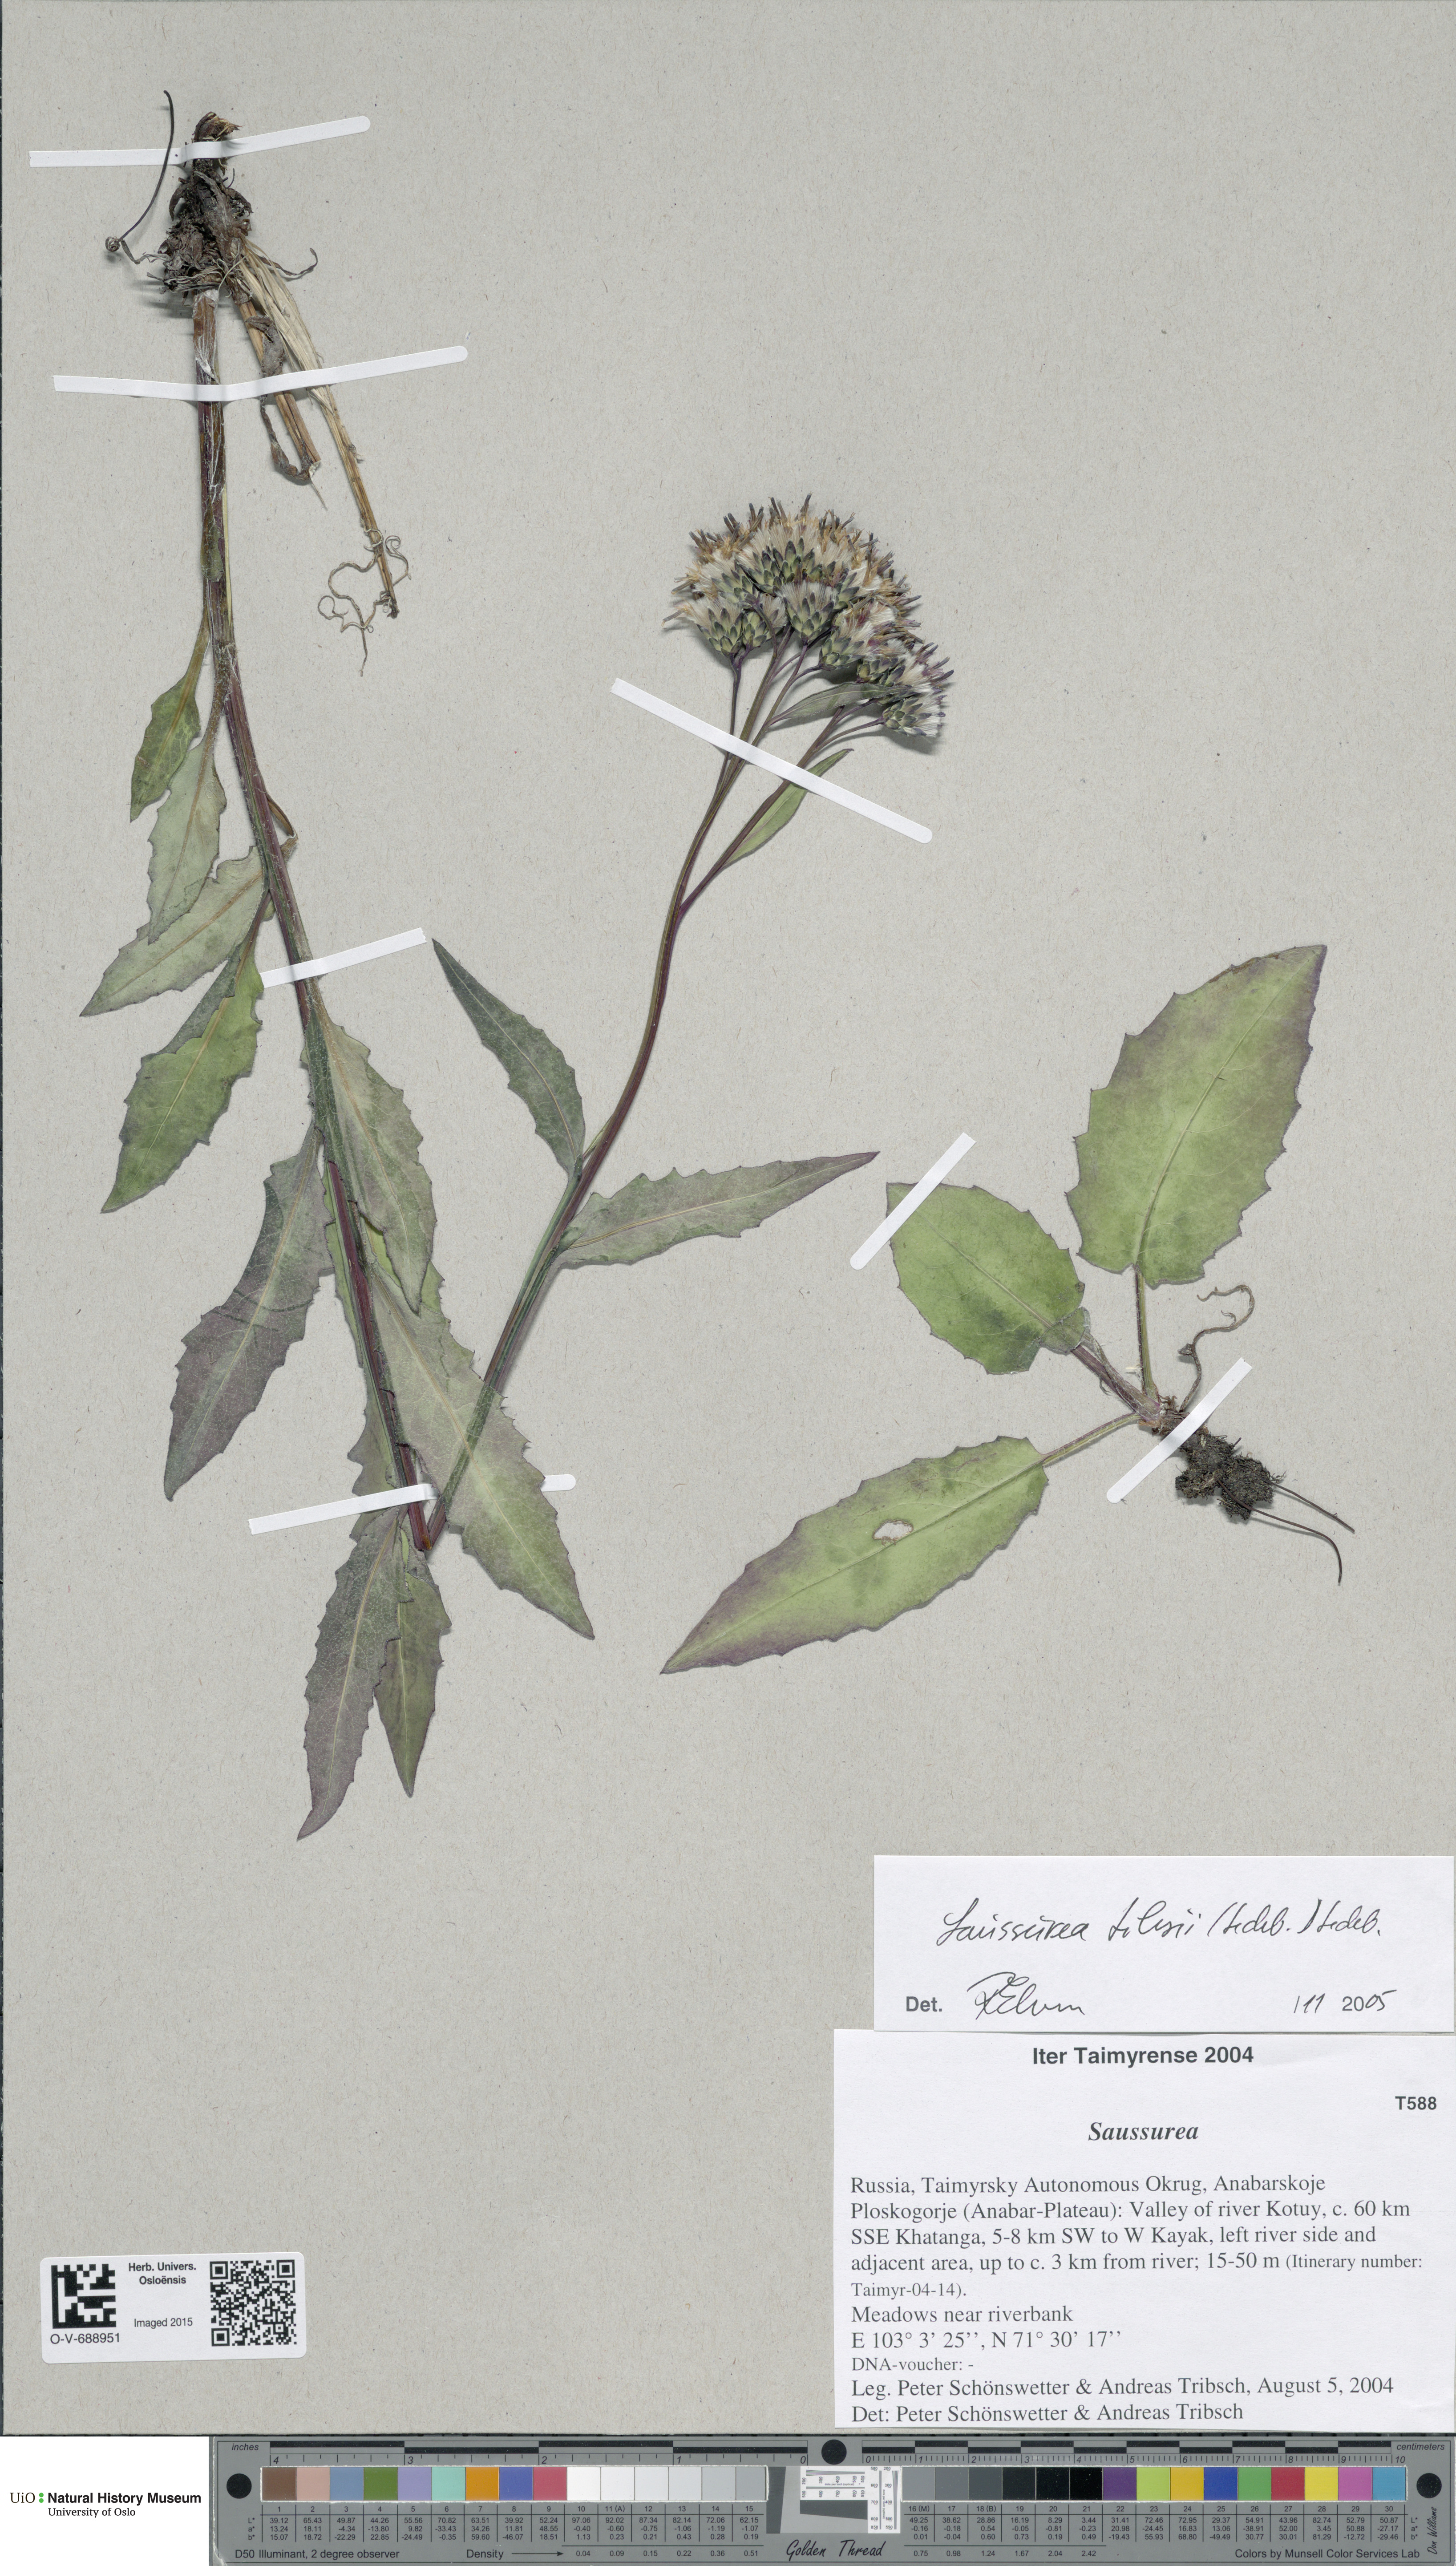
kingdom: Plantae
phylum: Tracheophyta
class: Magnoliopsida
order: Asterales
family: Asteraceae
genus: Saussurea
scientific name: Saussurea tilesii
